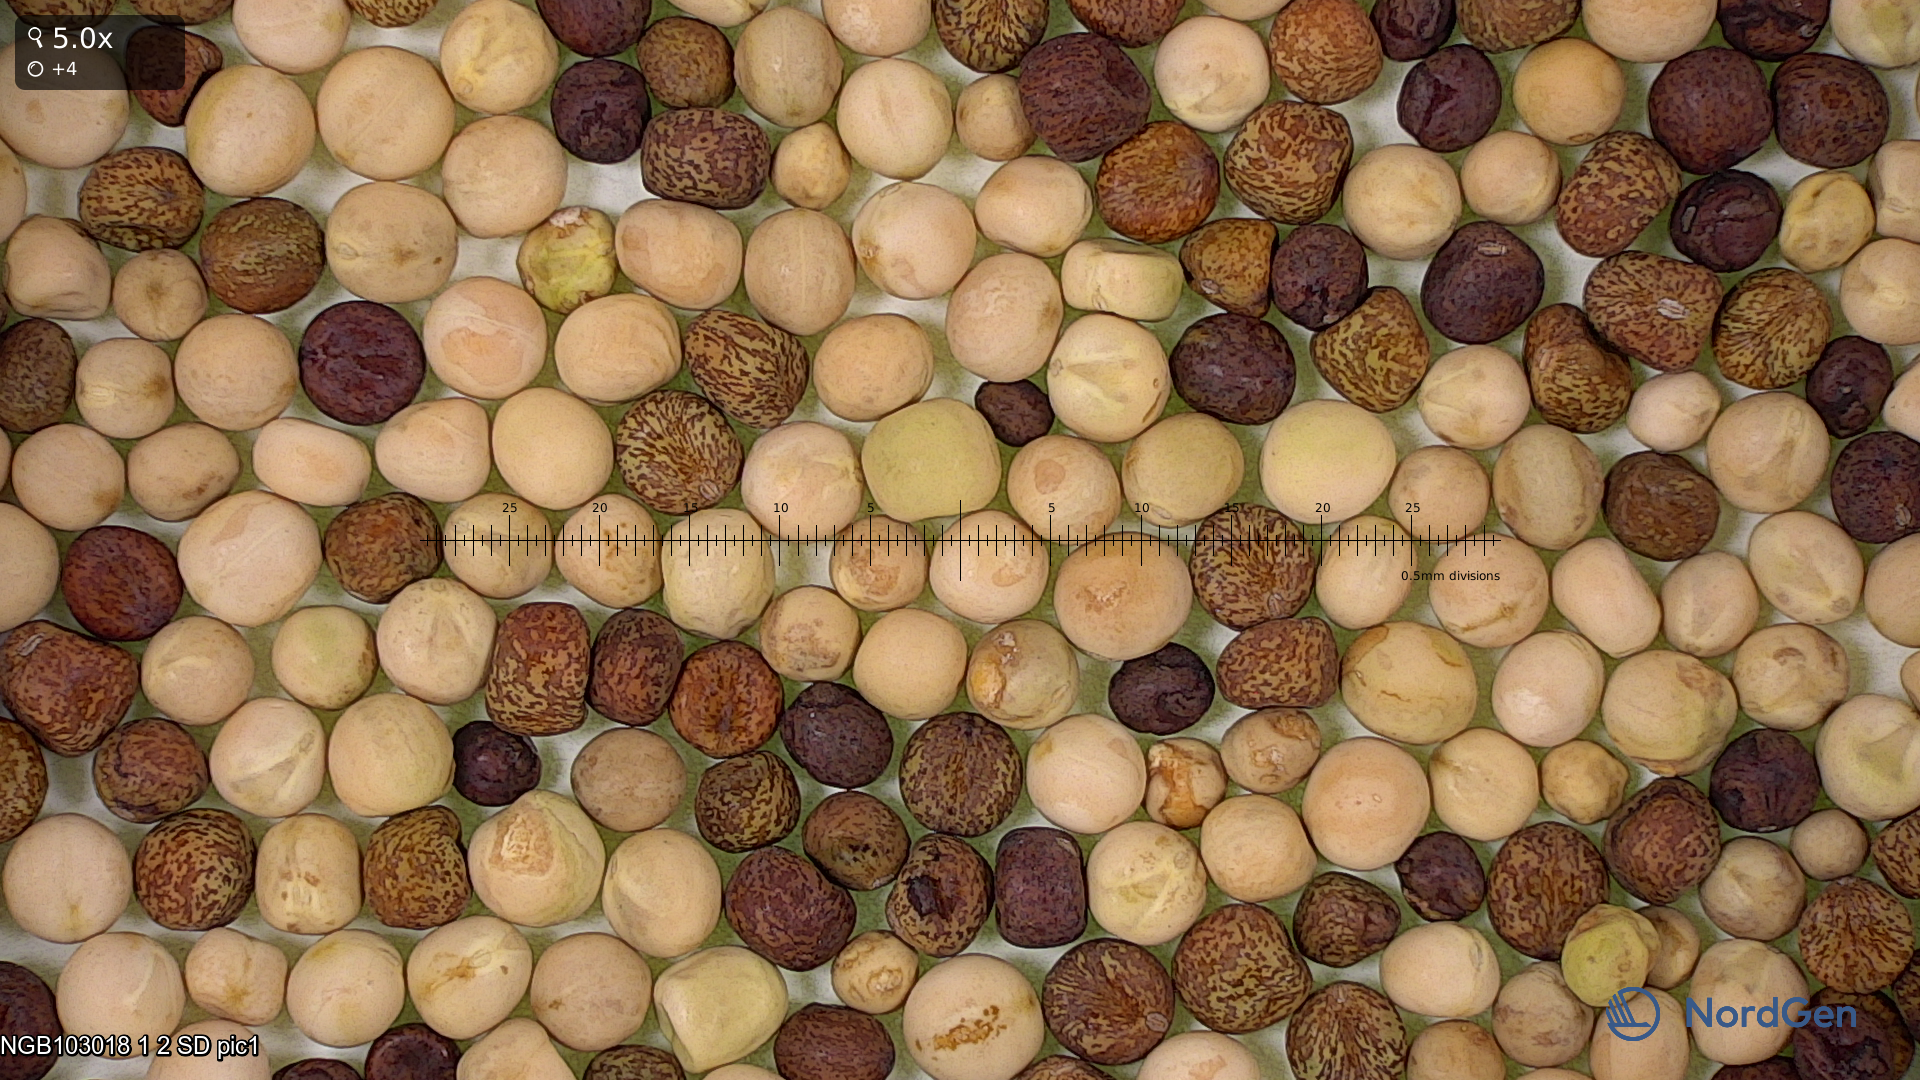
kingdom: Plantae
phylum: Tracheophyta
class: Magnoliopsida
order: Fabales
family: Fabaceae
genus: Lathyrus
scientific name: Lathyrus oleraceus
